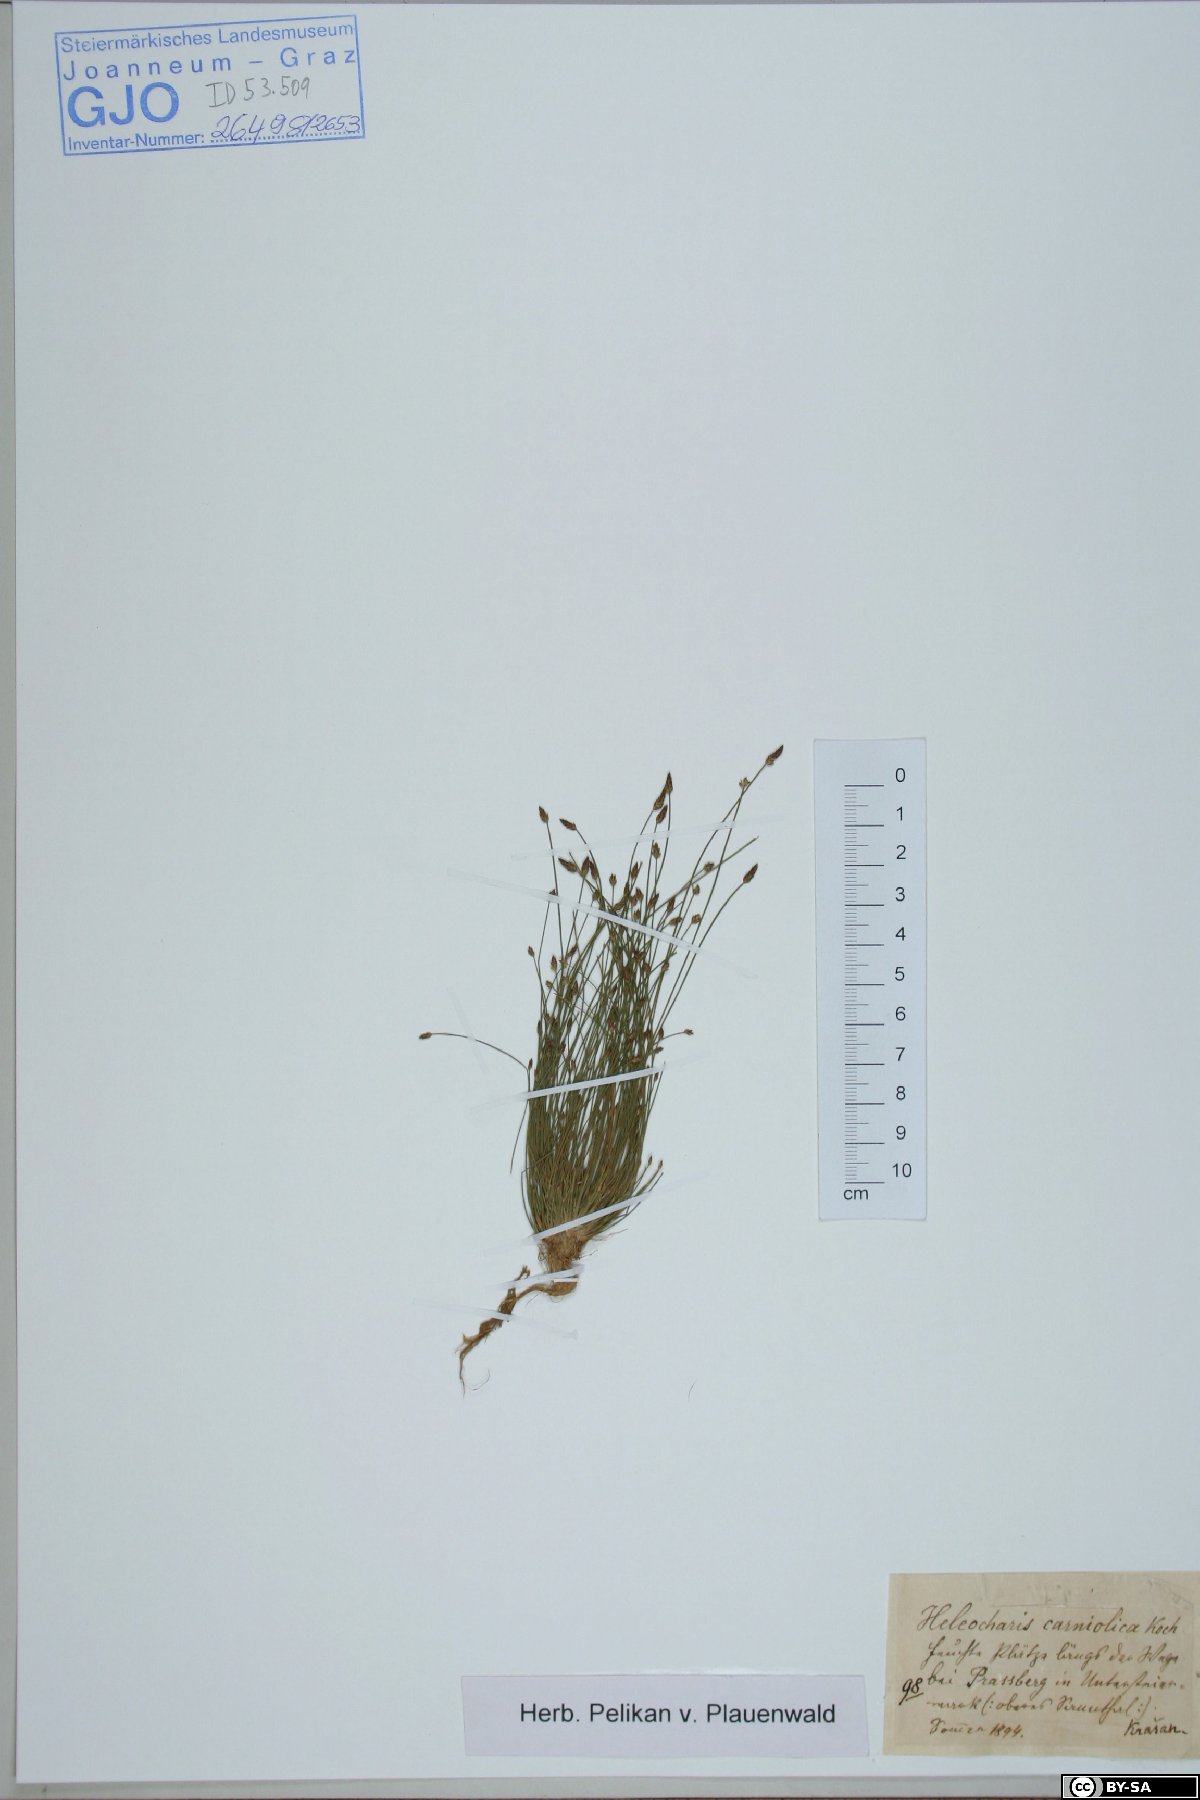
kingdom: Plantae
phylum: Tracheophyta
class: Liliopsida
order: Poales
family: Cyperaceae
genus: Eleocharis
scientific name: Eleocharis carniolica
